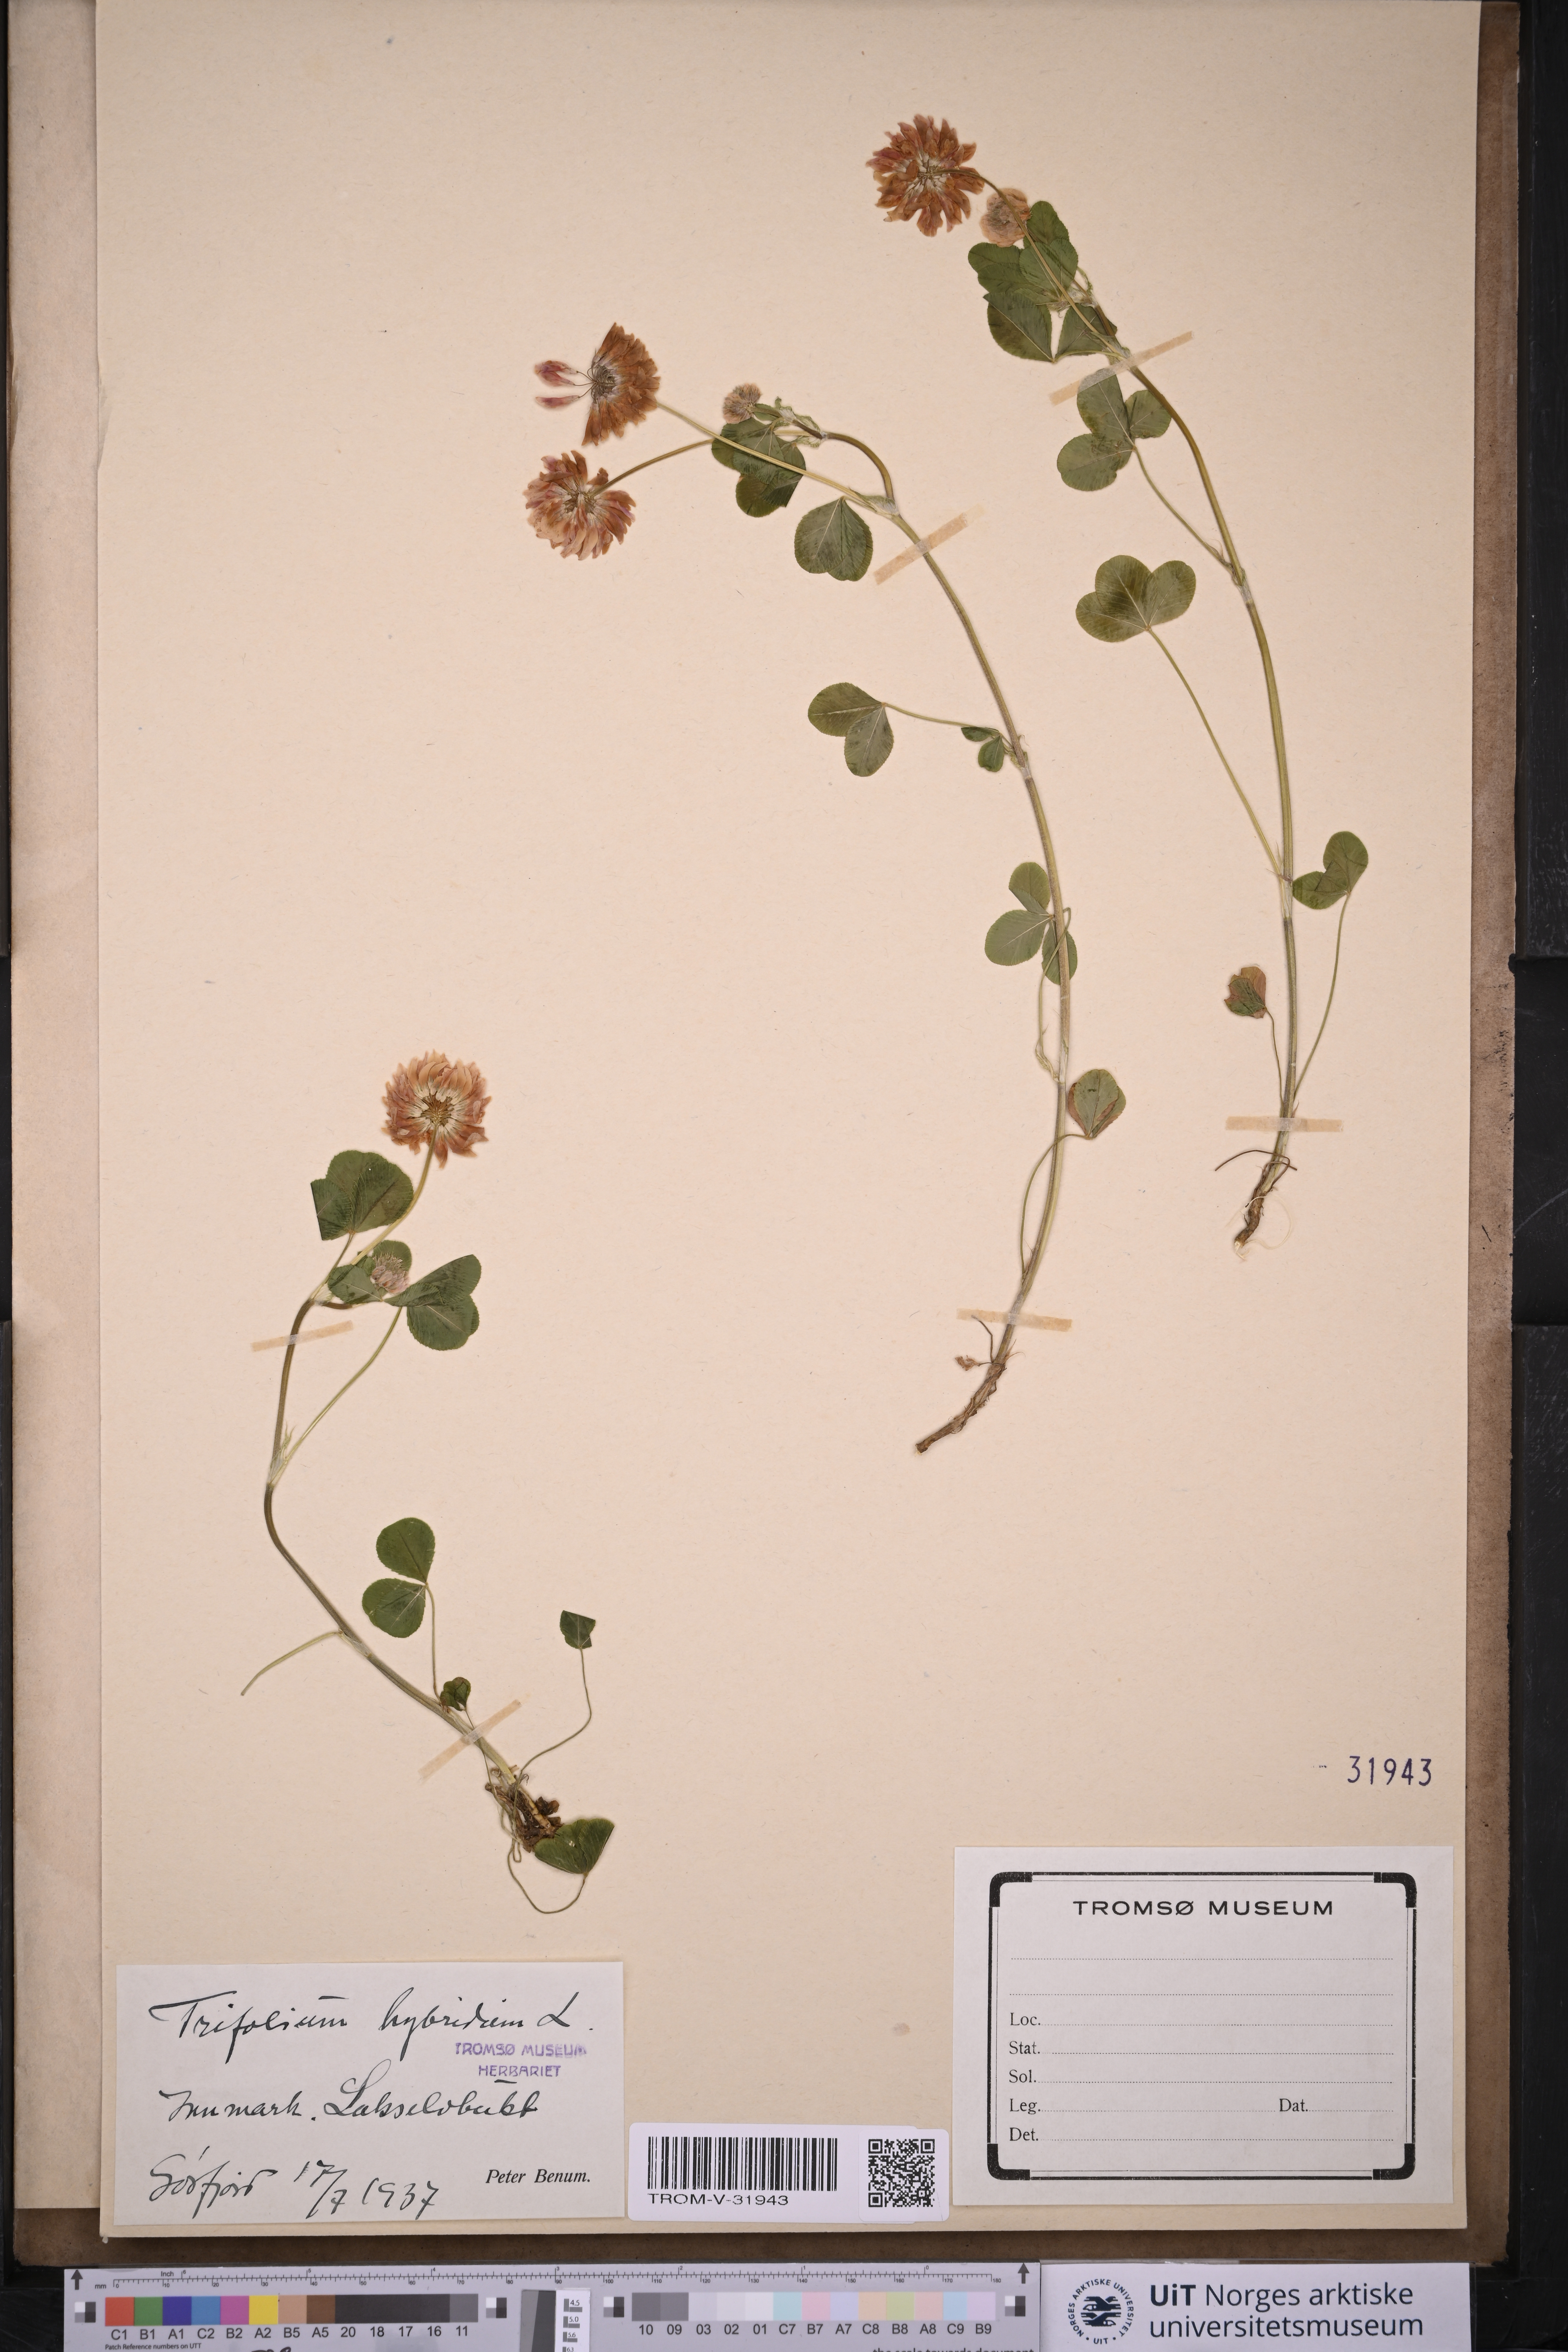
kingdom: Plantae
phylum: Tracheophyta
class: Magnoliopsida
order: Fabales
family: Fabaceae
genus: Trifolium
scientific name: Trifolium hybridum
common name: Alsike clover
